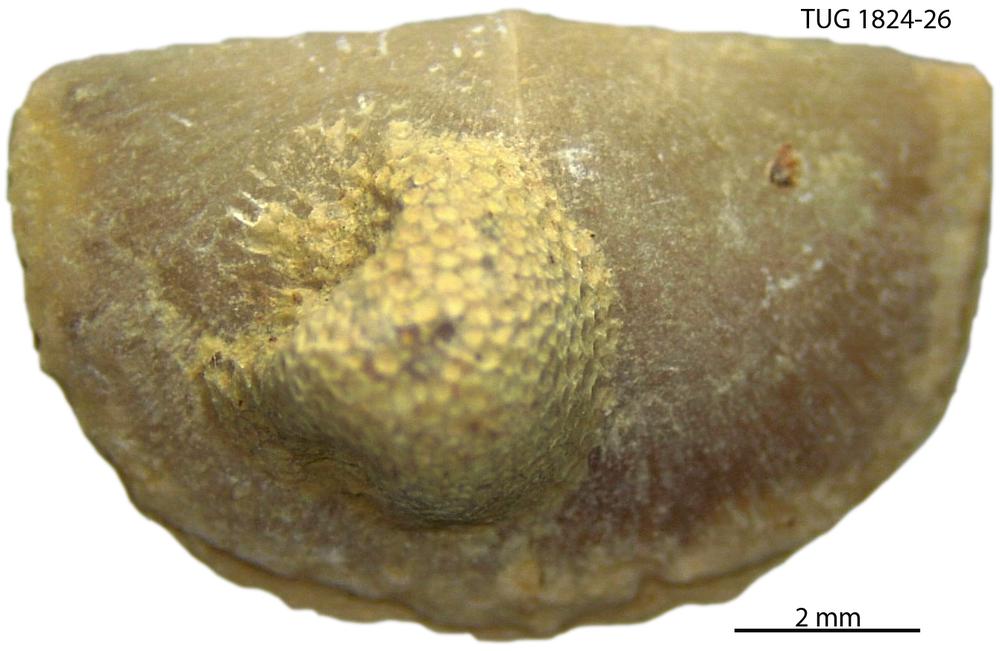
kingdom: Animalia
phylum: Brachiopoda
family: Sowerbyellidae
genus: Sowerbyella
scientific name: Sowerbyella
